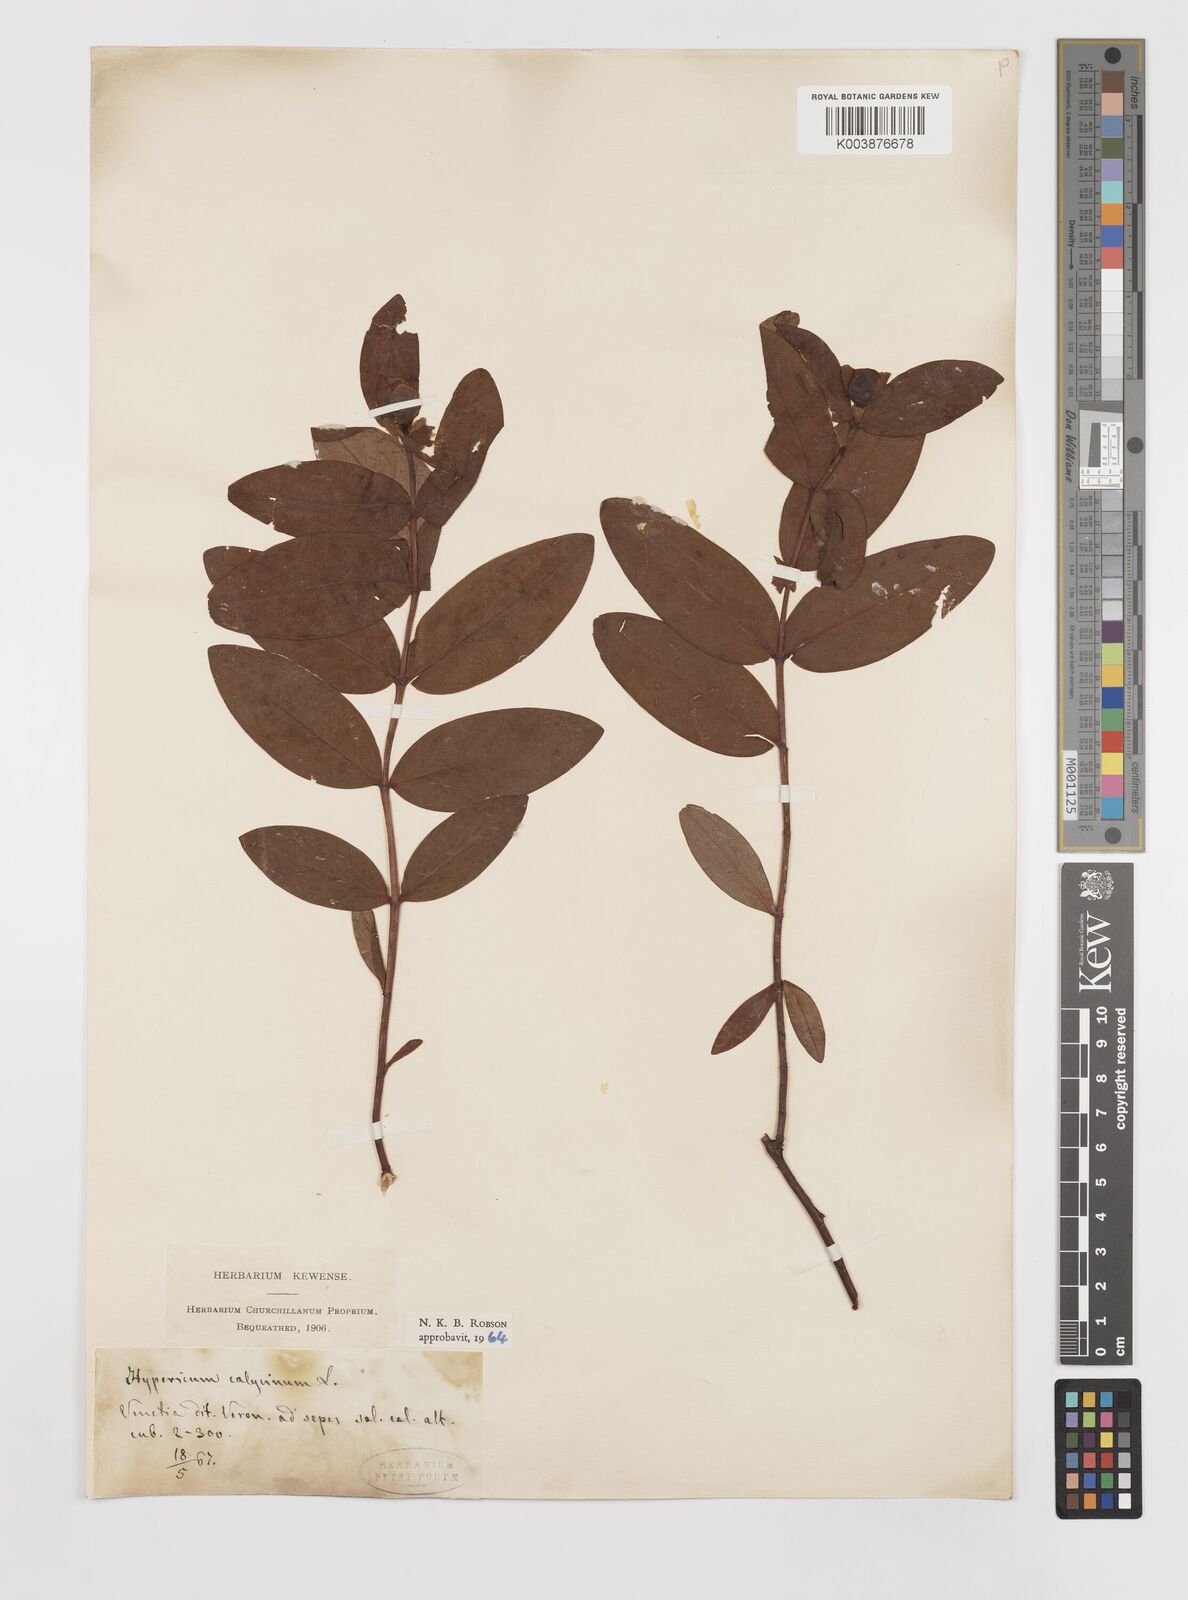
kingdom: Plantae
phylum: Tracheophyta
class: Magnoliopsida
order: Malpighiales
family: Hypericaceae
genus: Hypericum
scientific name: Hypericum calycinum
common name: Rose-of-sharon
